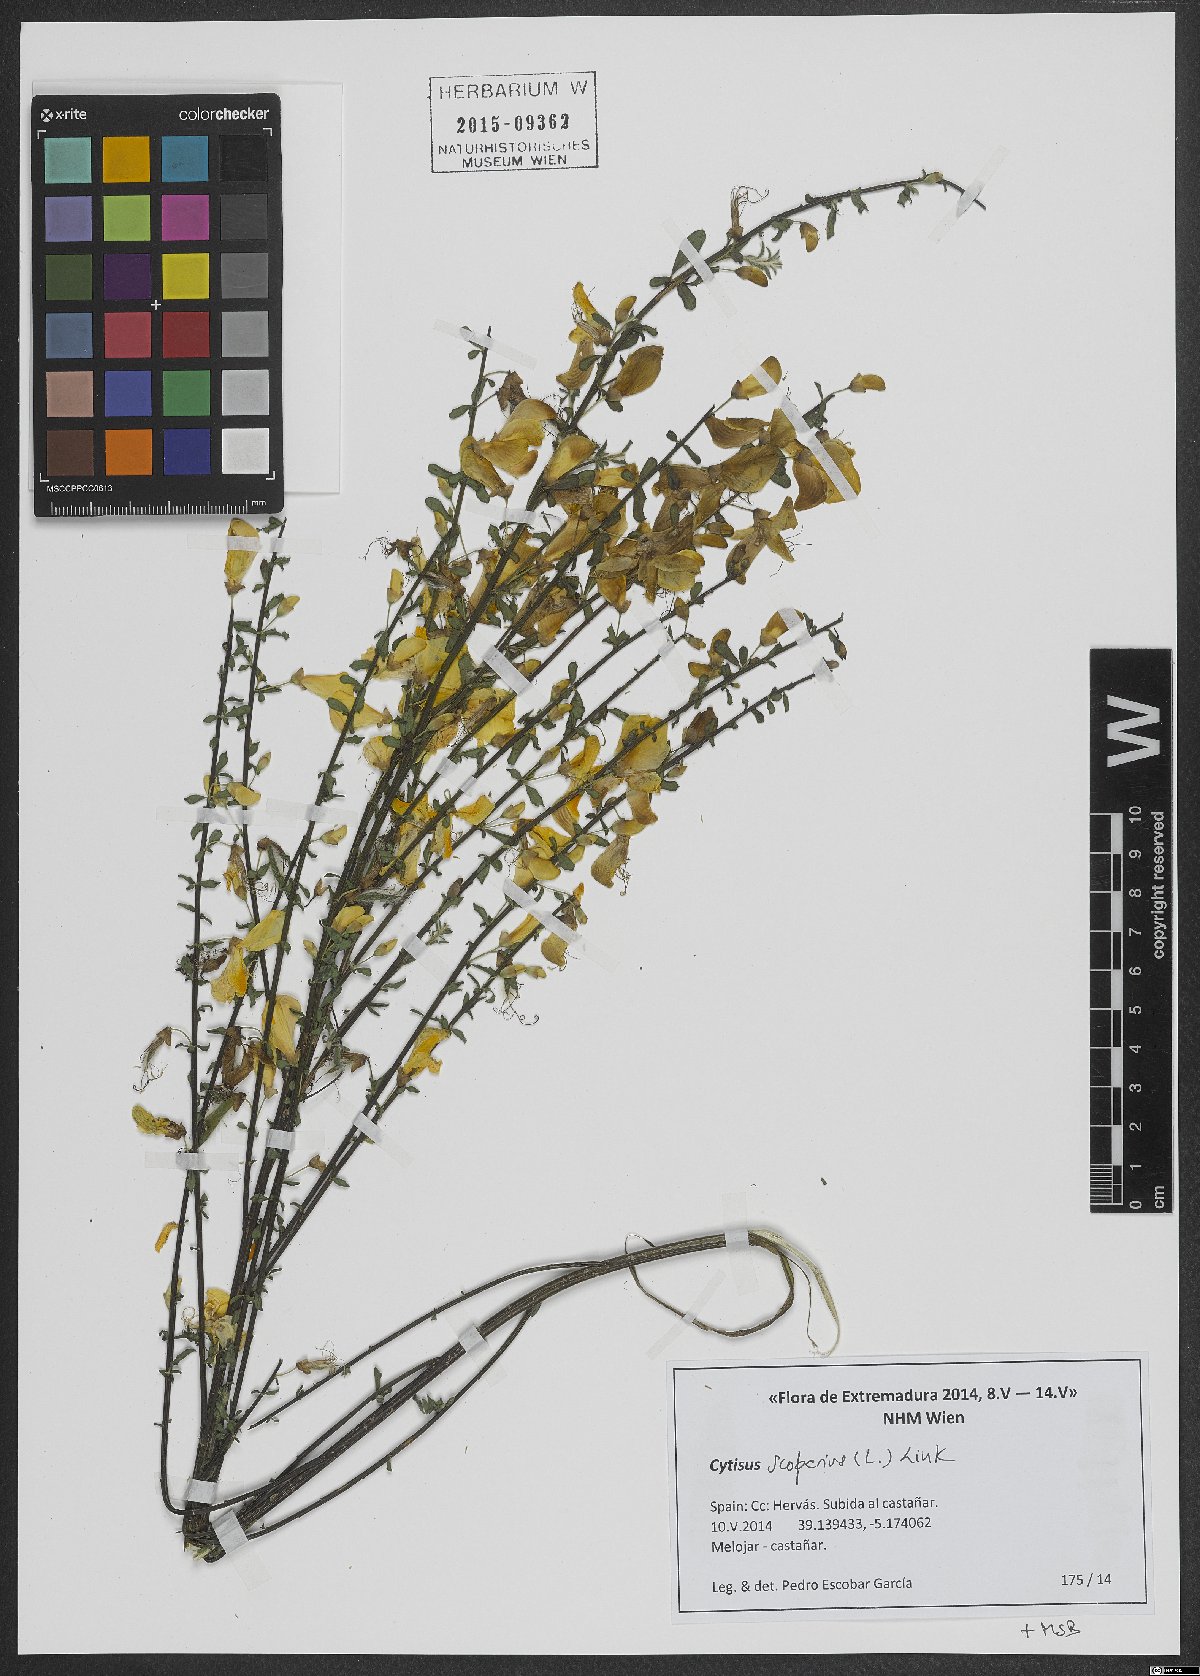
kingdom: Plantae
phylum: Tracheophyta
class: Magnoliopsida
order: Fabales
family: Fabaceae
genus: Cytisus
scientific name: Cytisus scoparius
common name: Scotch broom
